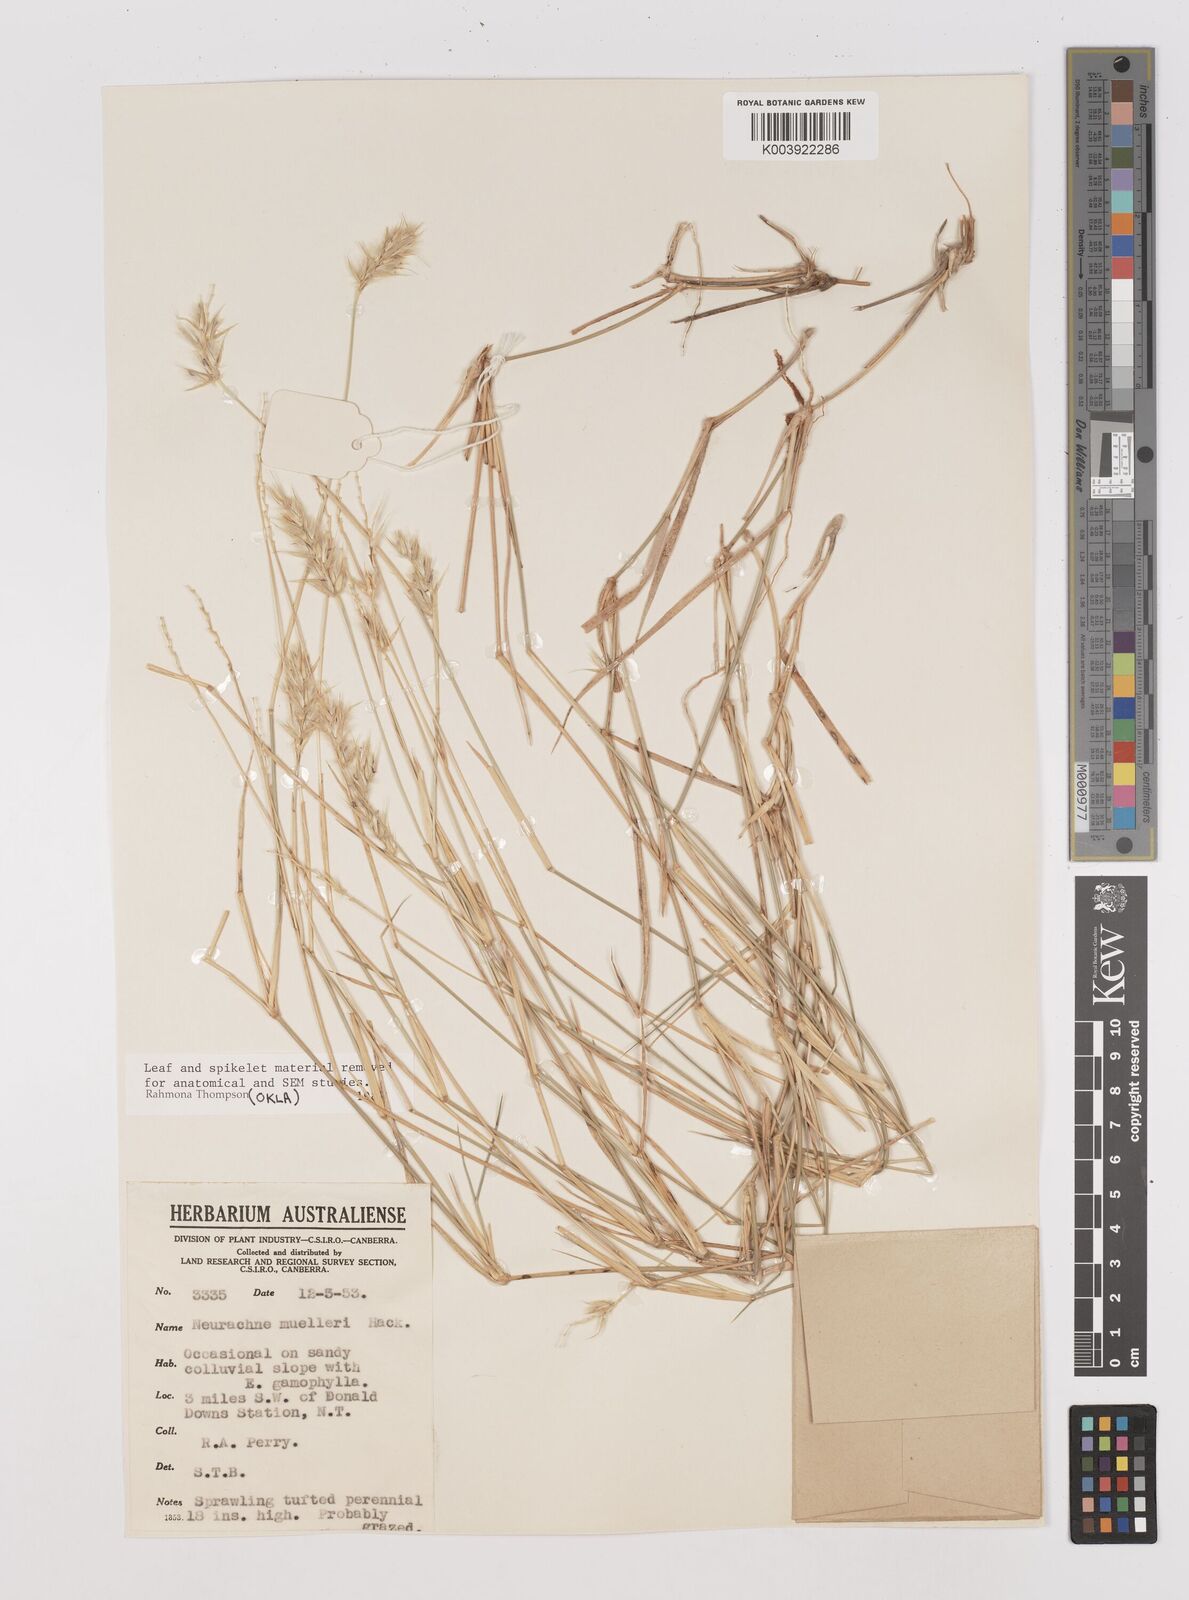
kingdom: Plantae
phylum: Tracheophyta
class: Liliopsida
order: Poales
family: Poaceae
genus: Neurachne
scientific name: Neurachne muelleri
